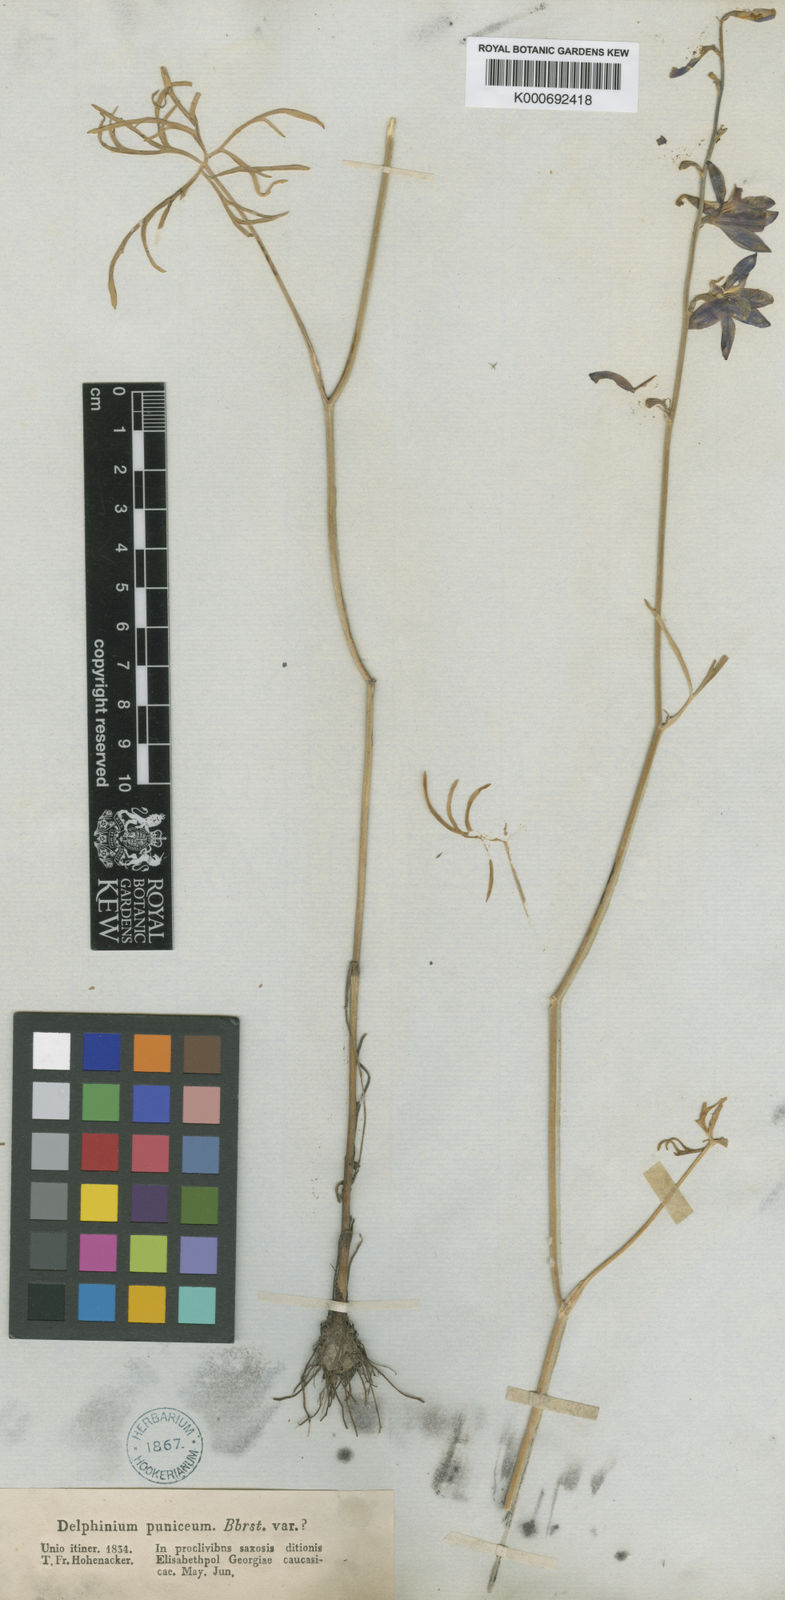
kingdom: Plantae
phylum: Tracheophyta
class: Magnoliopsida
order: Ranunculales
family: Ranunculaceae
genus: Delphinium
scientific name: Delphinium
